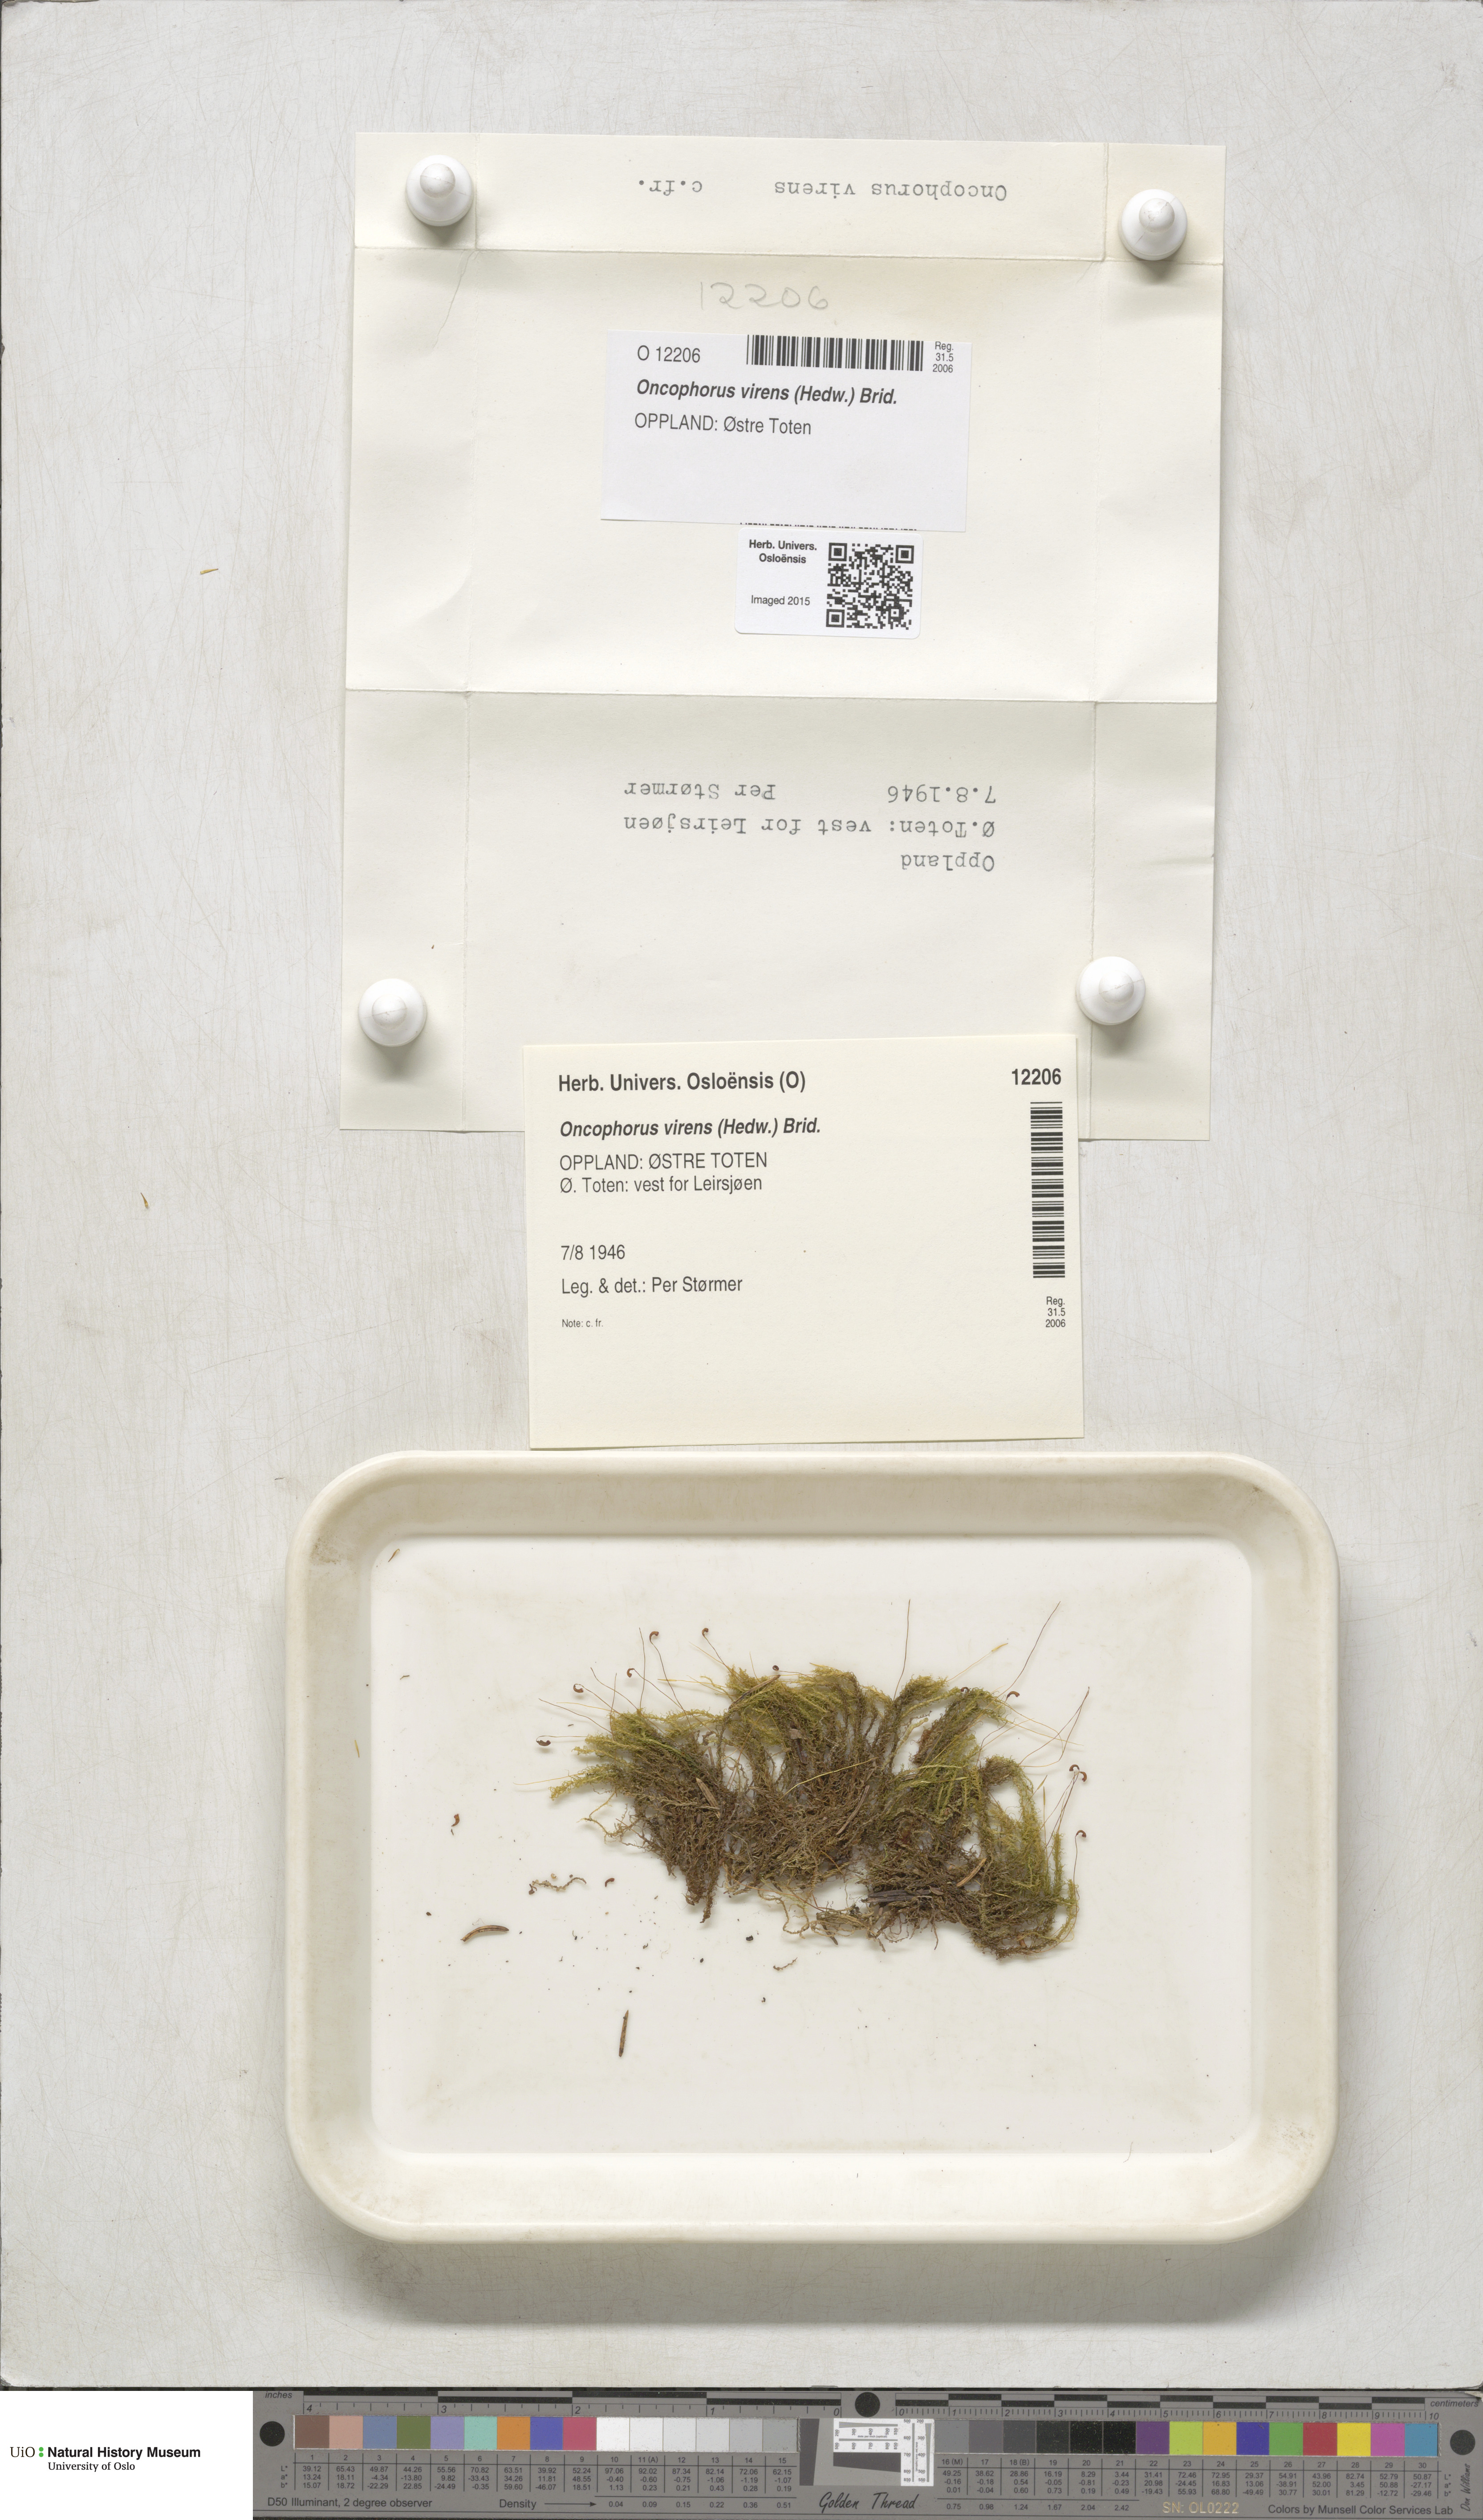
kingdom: Plantae
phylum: Bryophyta
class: Bryopsida
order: Dicranales
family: Rhabdoweisiaceae
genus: Oncophorus
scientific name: Oncophorus virens
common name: Green spur moss
